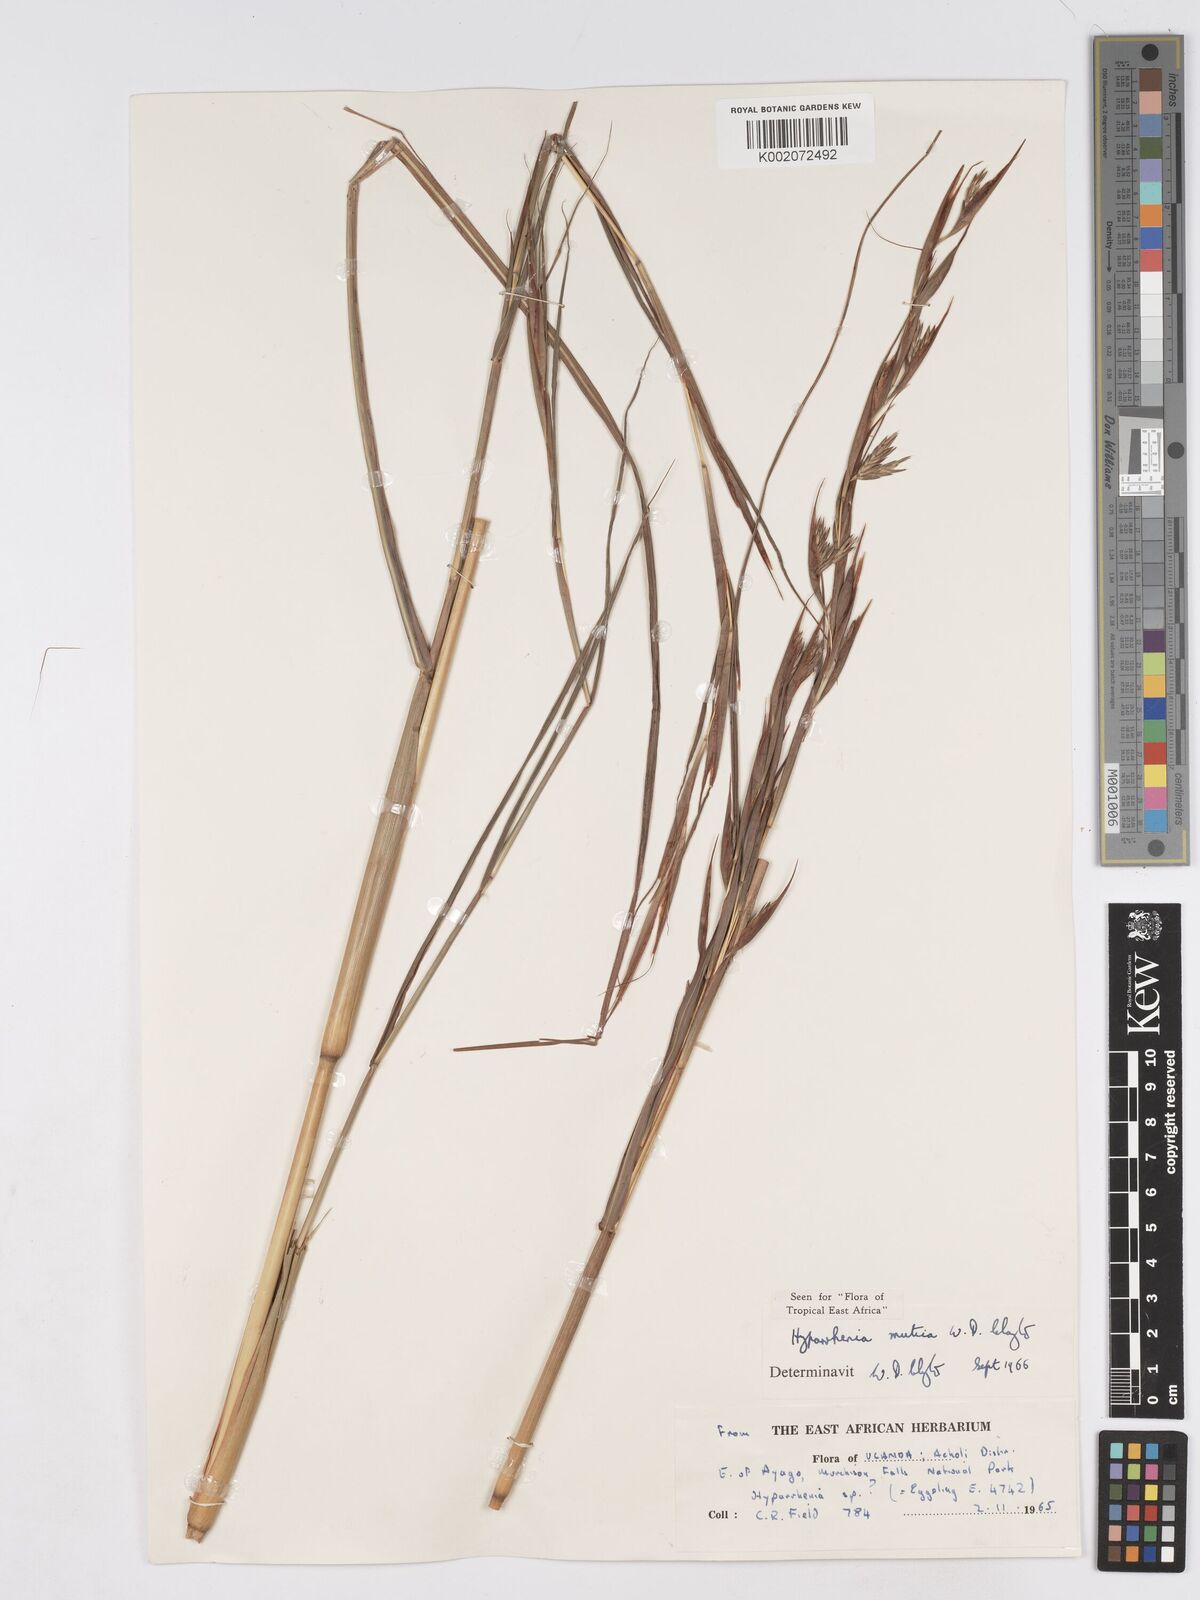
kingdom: Plantae
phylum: Tracheophyta
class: Liliopsida
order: Poales
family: Poaceae
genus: Hyparrhenia
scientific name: Hyparrhenia diplandra
